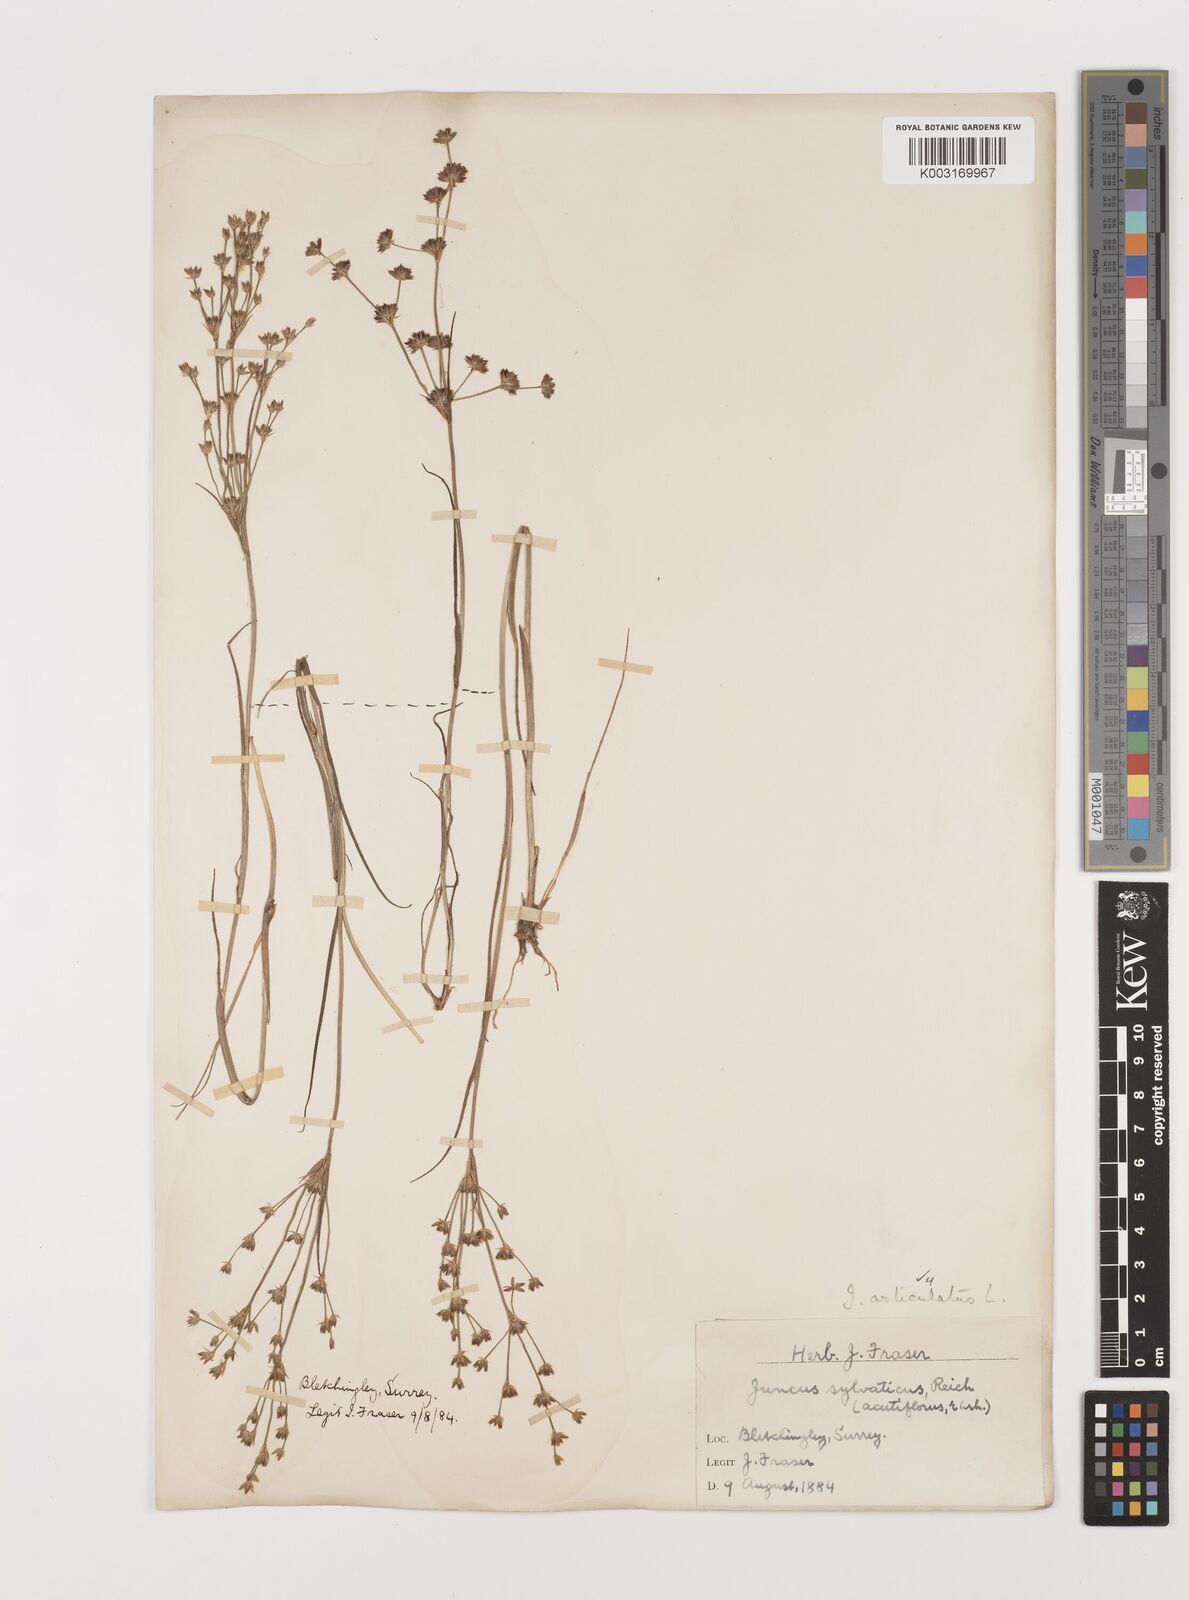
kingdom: Plantae
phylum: Tracheophyta
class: Liliopsida
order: Poales
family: Juncaceae
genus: Juncus
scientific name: Juncus articulatus
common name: Jointed rush
